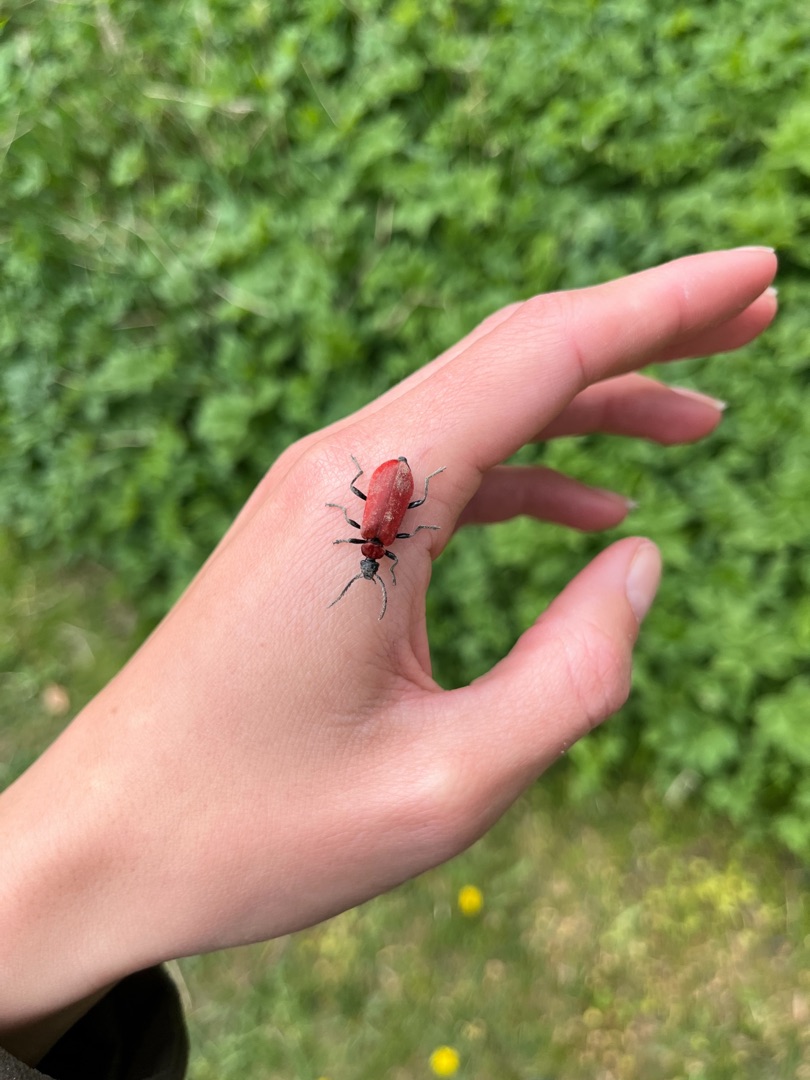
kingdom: Animalia
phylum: Arthropoda
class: Insecta
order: Coleoptera
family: Pyrochroidae
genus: Pyrochroa
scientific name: Pyrochroa coccinea
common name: Sorthovedet kardinalbille
